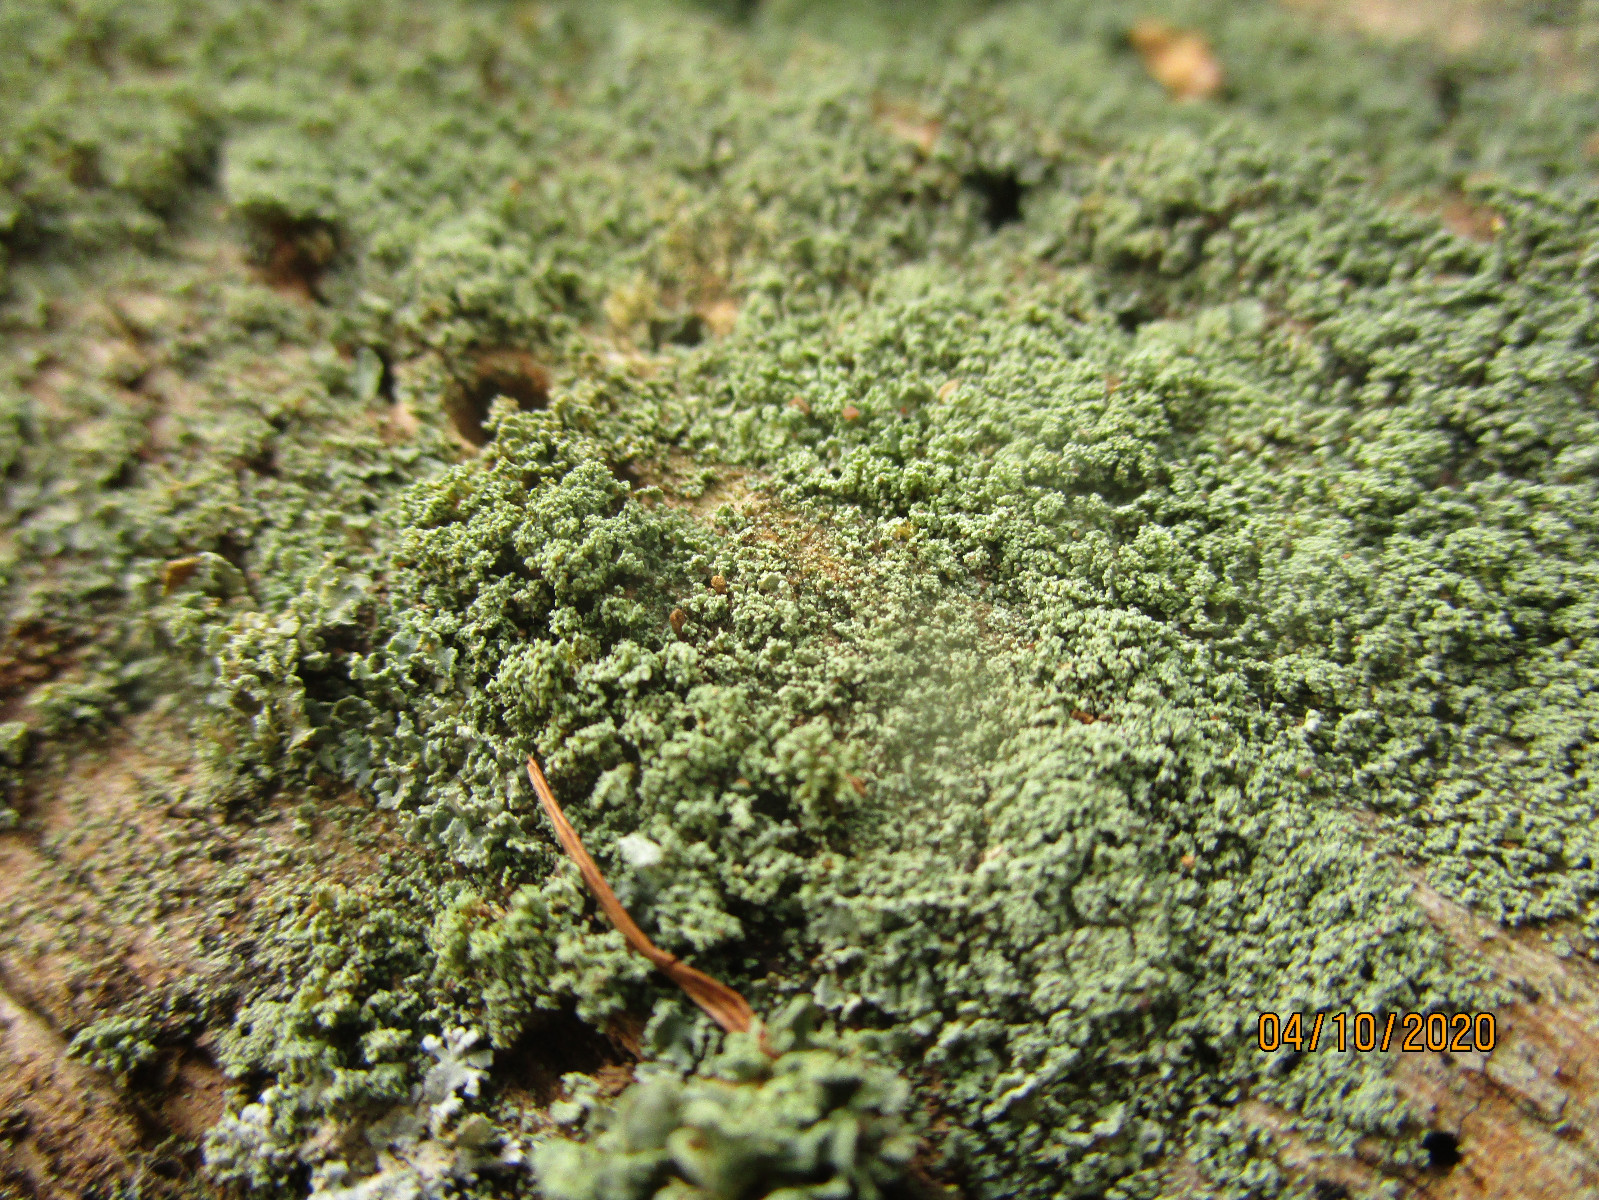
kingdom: Fungi
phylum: Ascomycota
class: Lecanoromycetes
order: Lecanorales
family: Cladoniaceae
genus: Cladonia
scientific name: Cladonia parasitica
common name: dværg-bægerlav
